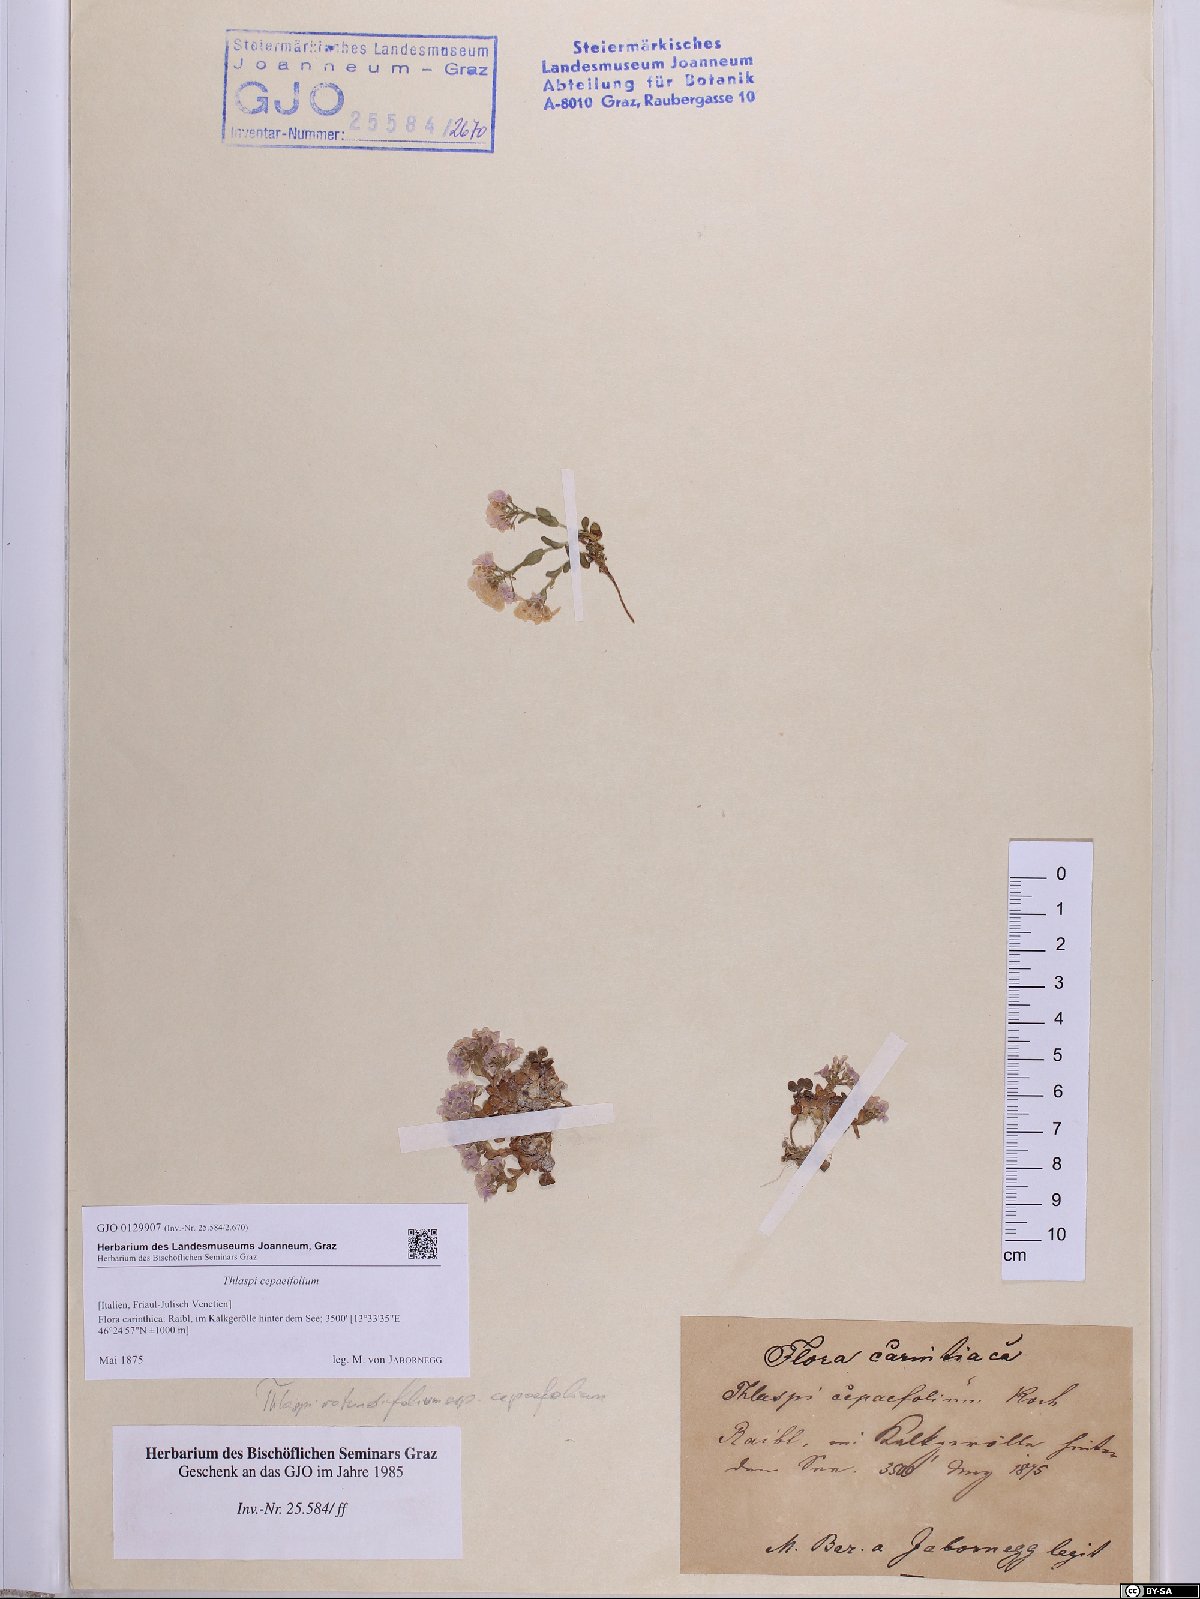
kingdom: Plantae
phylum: Tracheophyta
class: Magnoliopsida
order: Brassicales
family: Brassicaceae
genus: Noccaea
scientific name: Noccaea cepaeifolia
